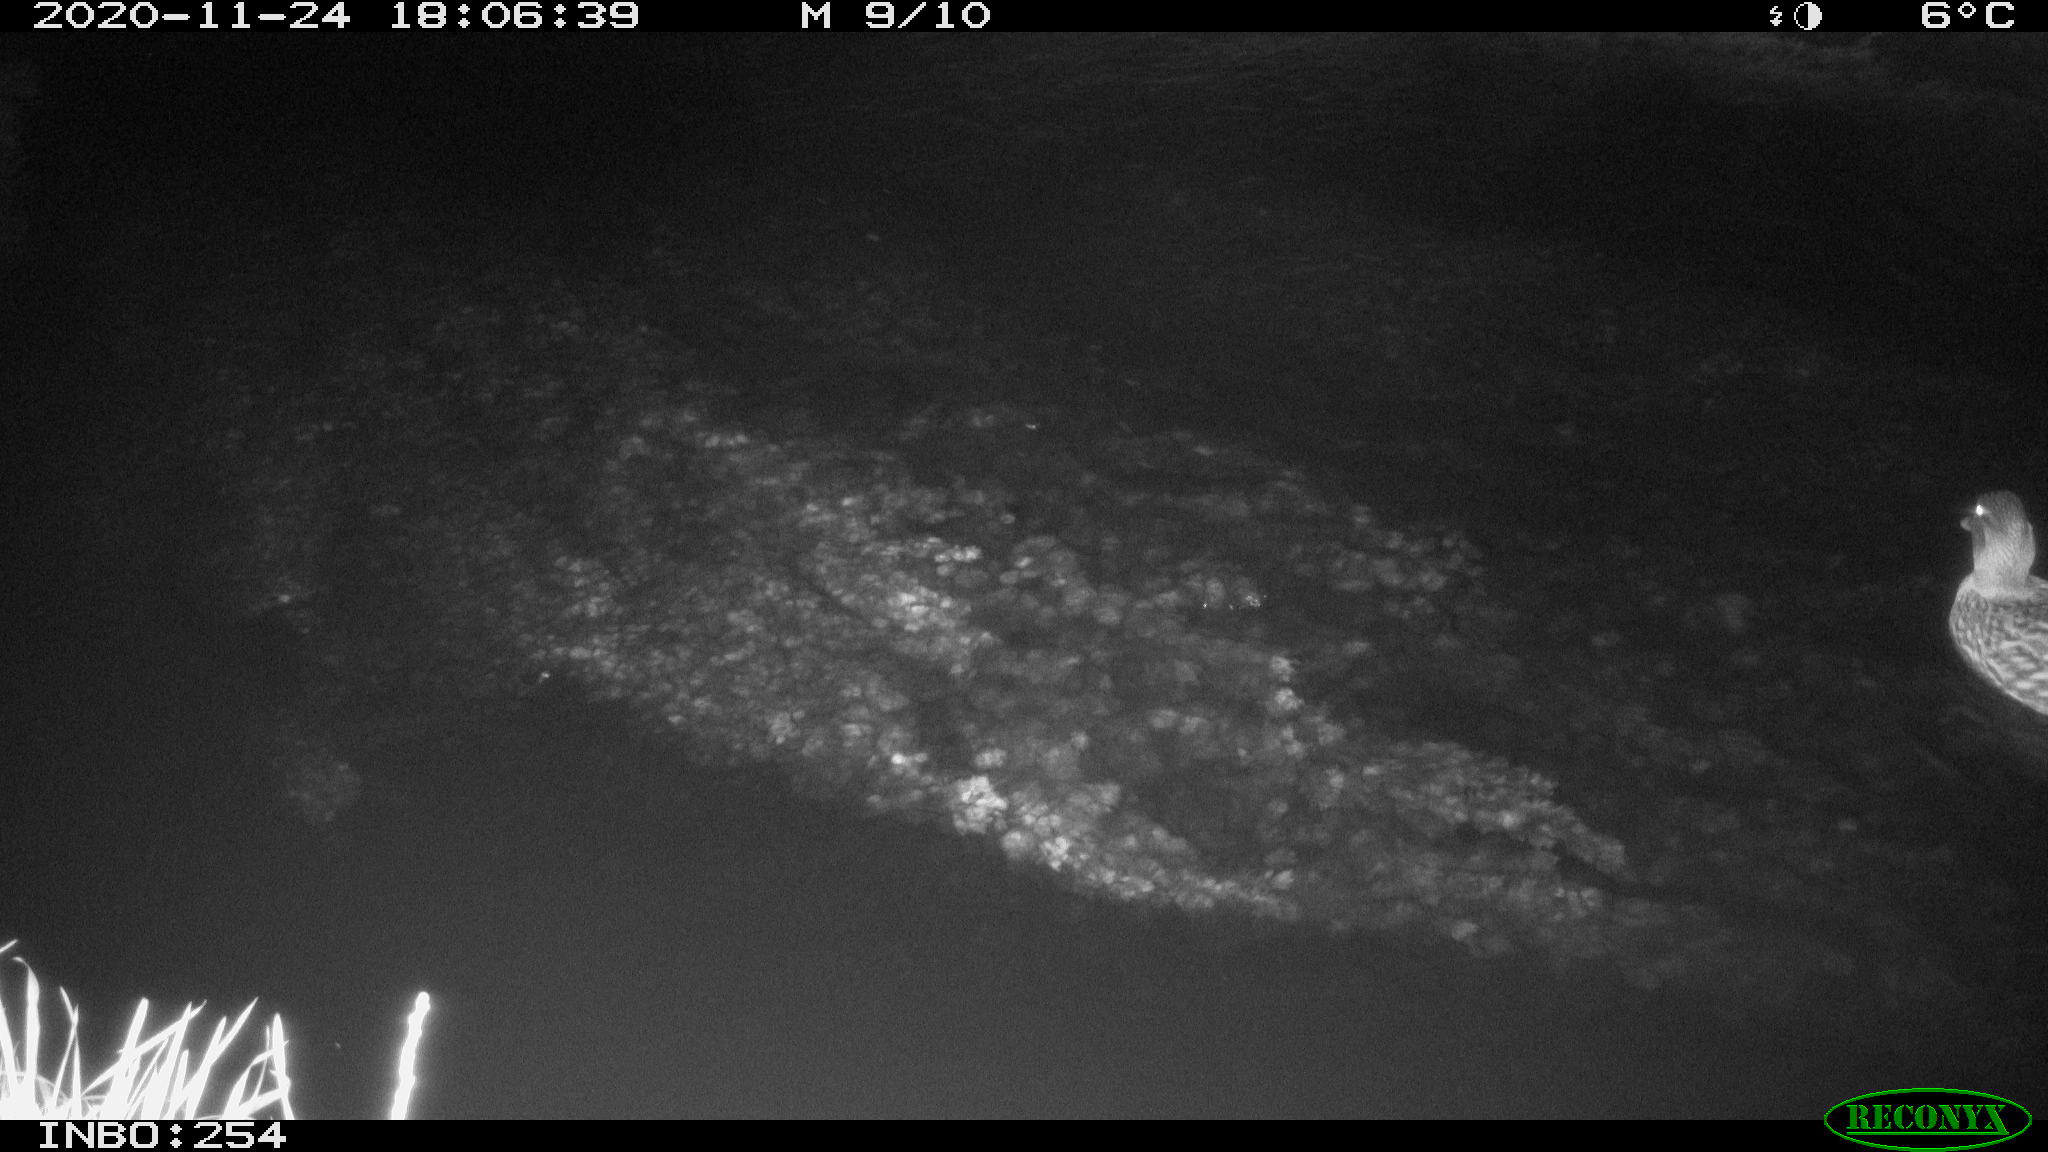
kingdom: Animalia
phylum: Chordata
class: Aves
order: Anseriformes
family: Anatidae
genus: Anas
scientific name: Anas platyrhynchos
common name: Mallard
